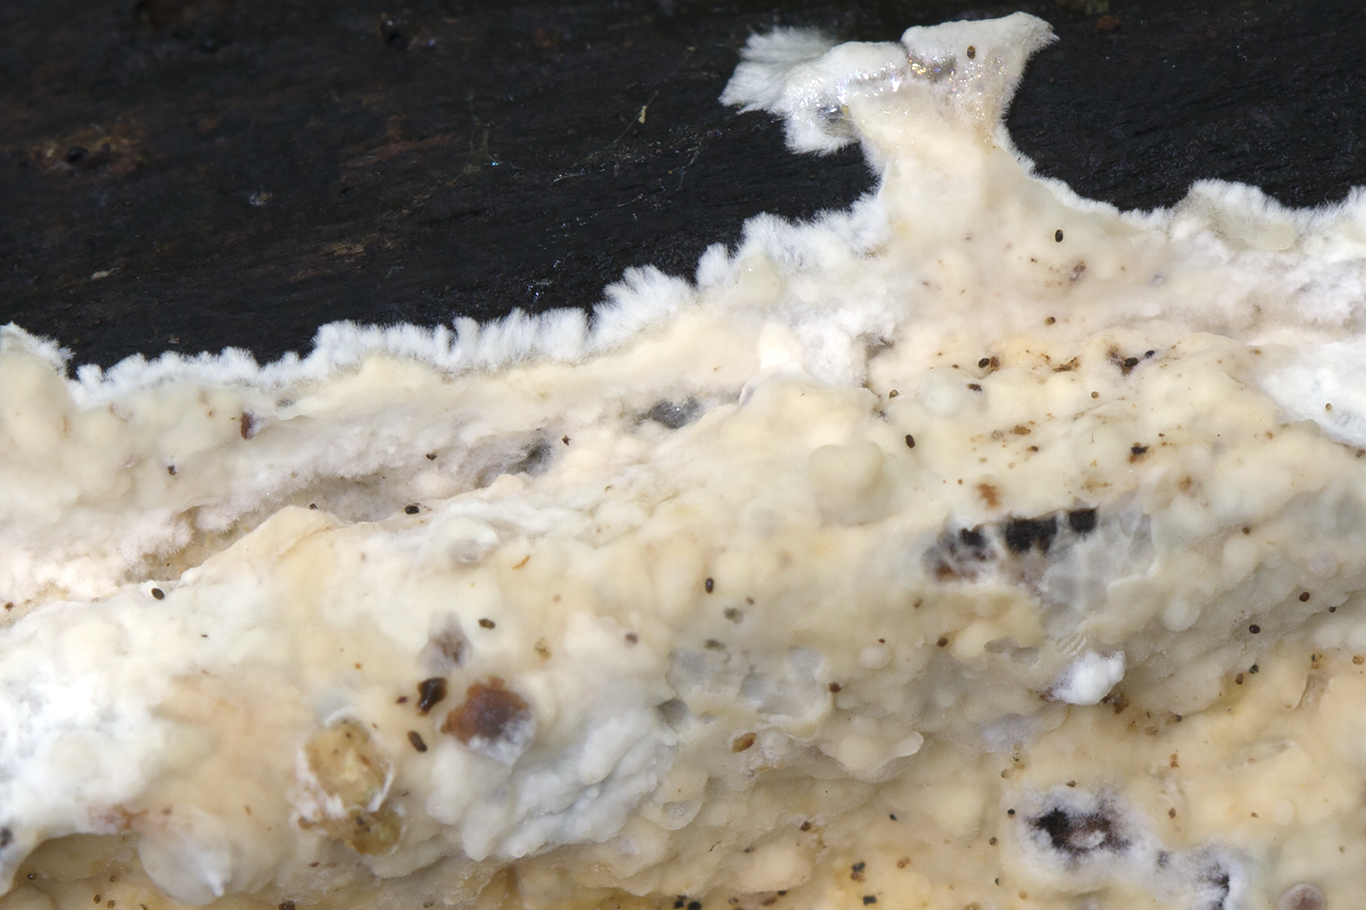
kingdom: Fungi
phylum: Basidiomycota
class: Agaricomycetes
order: Polyporales
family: Phanerochaetaceae
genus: Phanerochaete
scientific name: Phanerochaete velutina
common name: dunet randtråd
